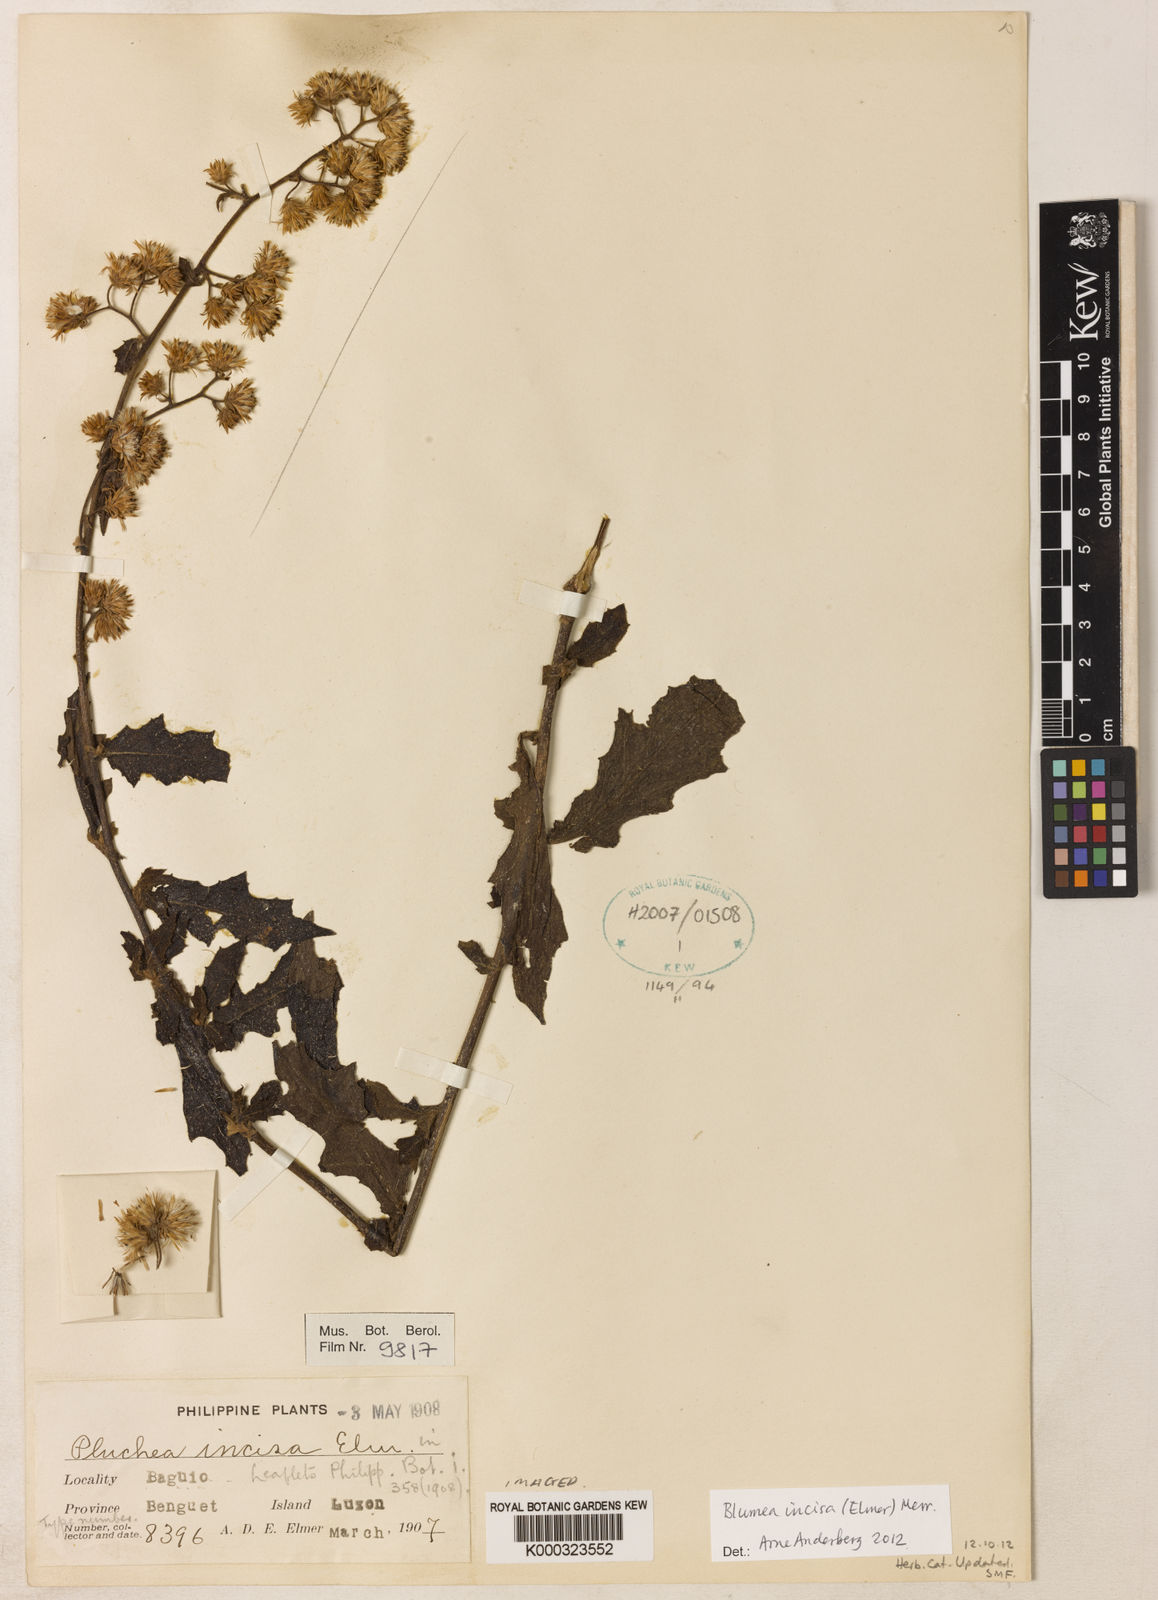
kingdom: Plantae
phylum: Tracheophyta
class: Magnoliopsida
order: Asterales
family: Asteraceae
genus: Blumea
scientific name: Blumea incisa
